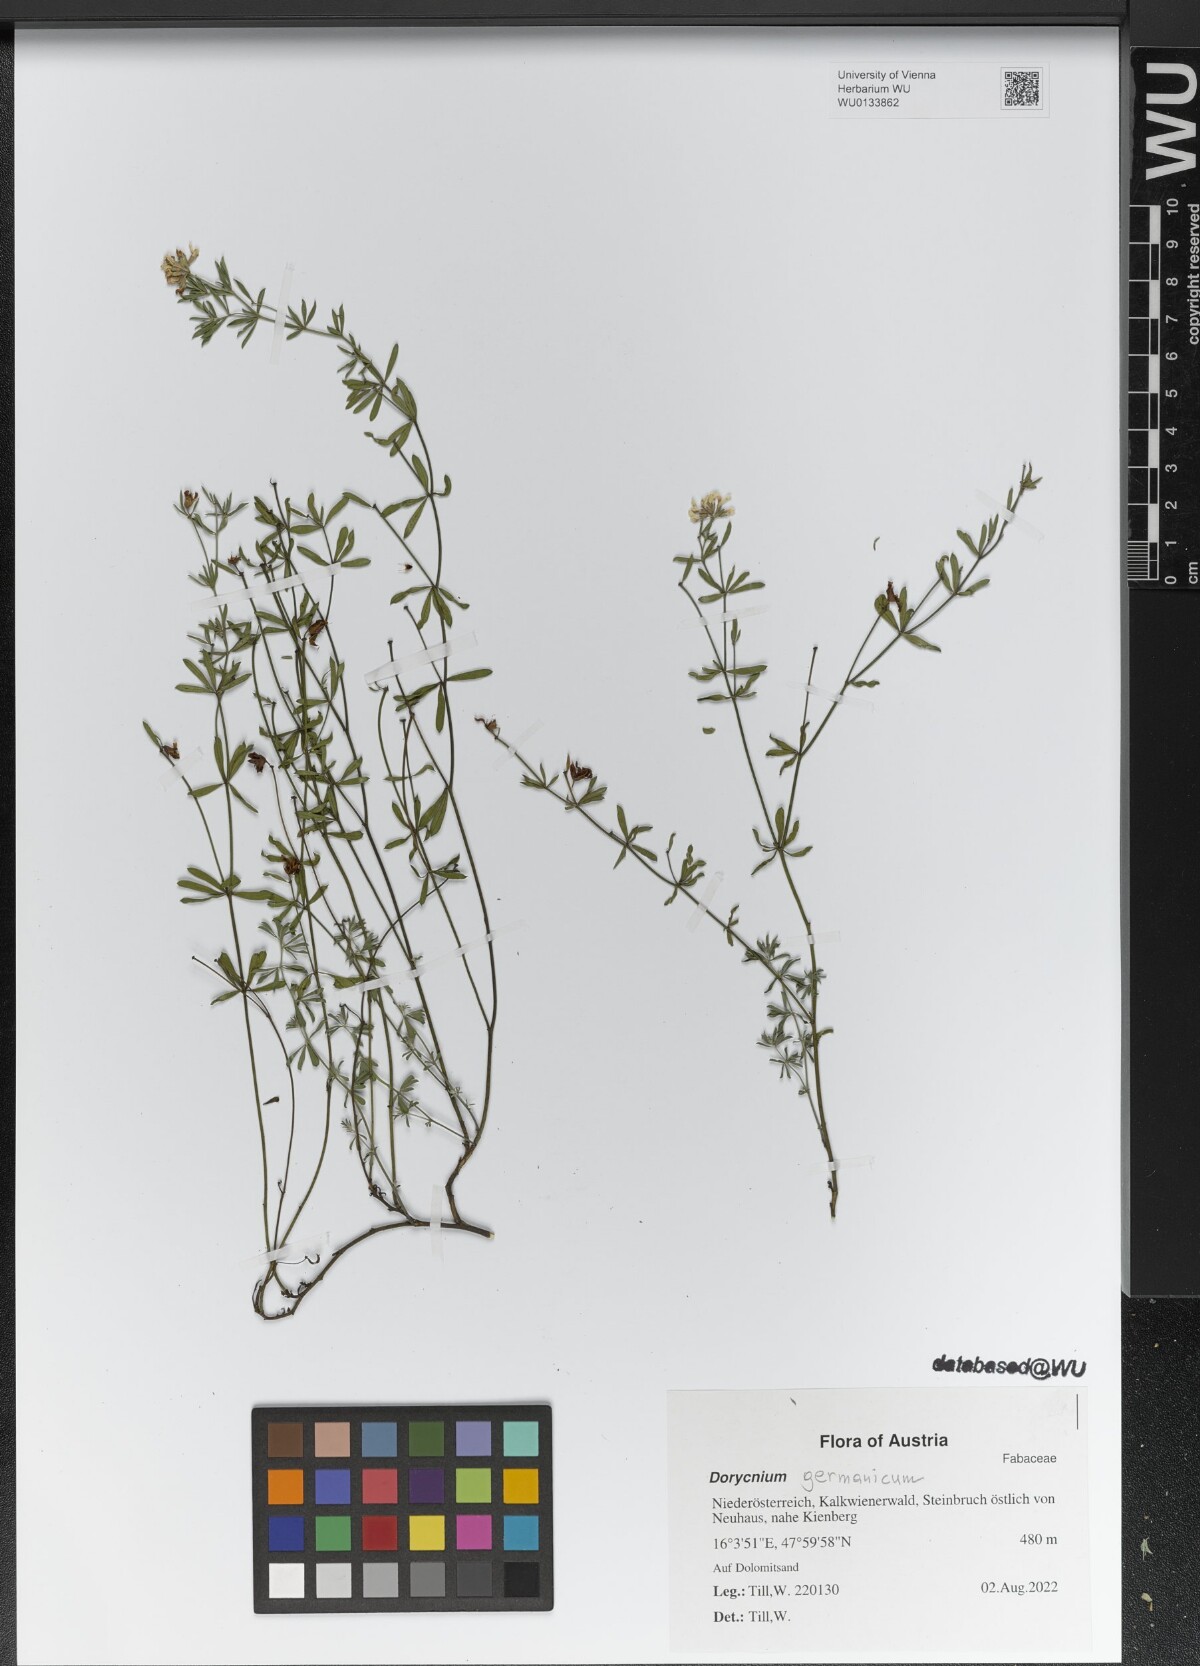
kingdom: Plantae
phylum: Tracheophyta
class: Magnoliopsida
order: Fabales
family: Fabaceae
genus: Lotus
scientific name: Lotus germanicus
